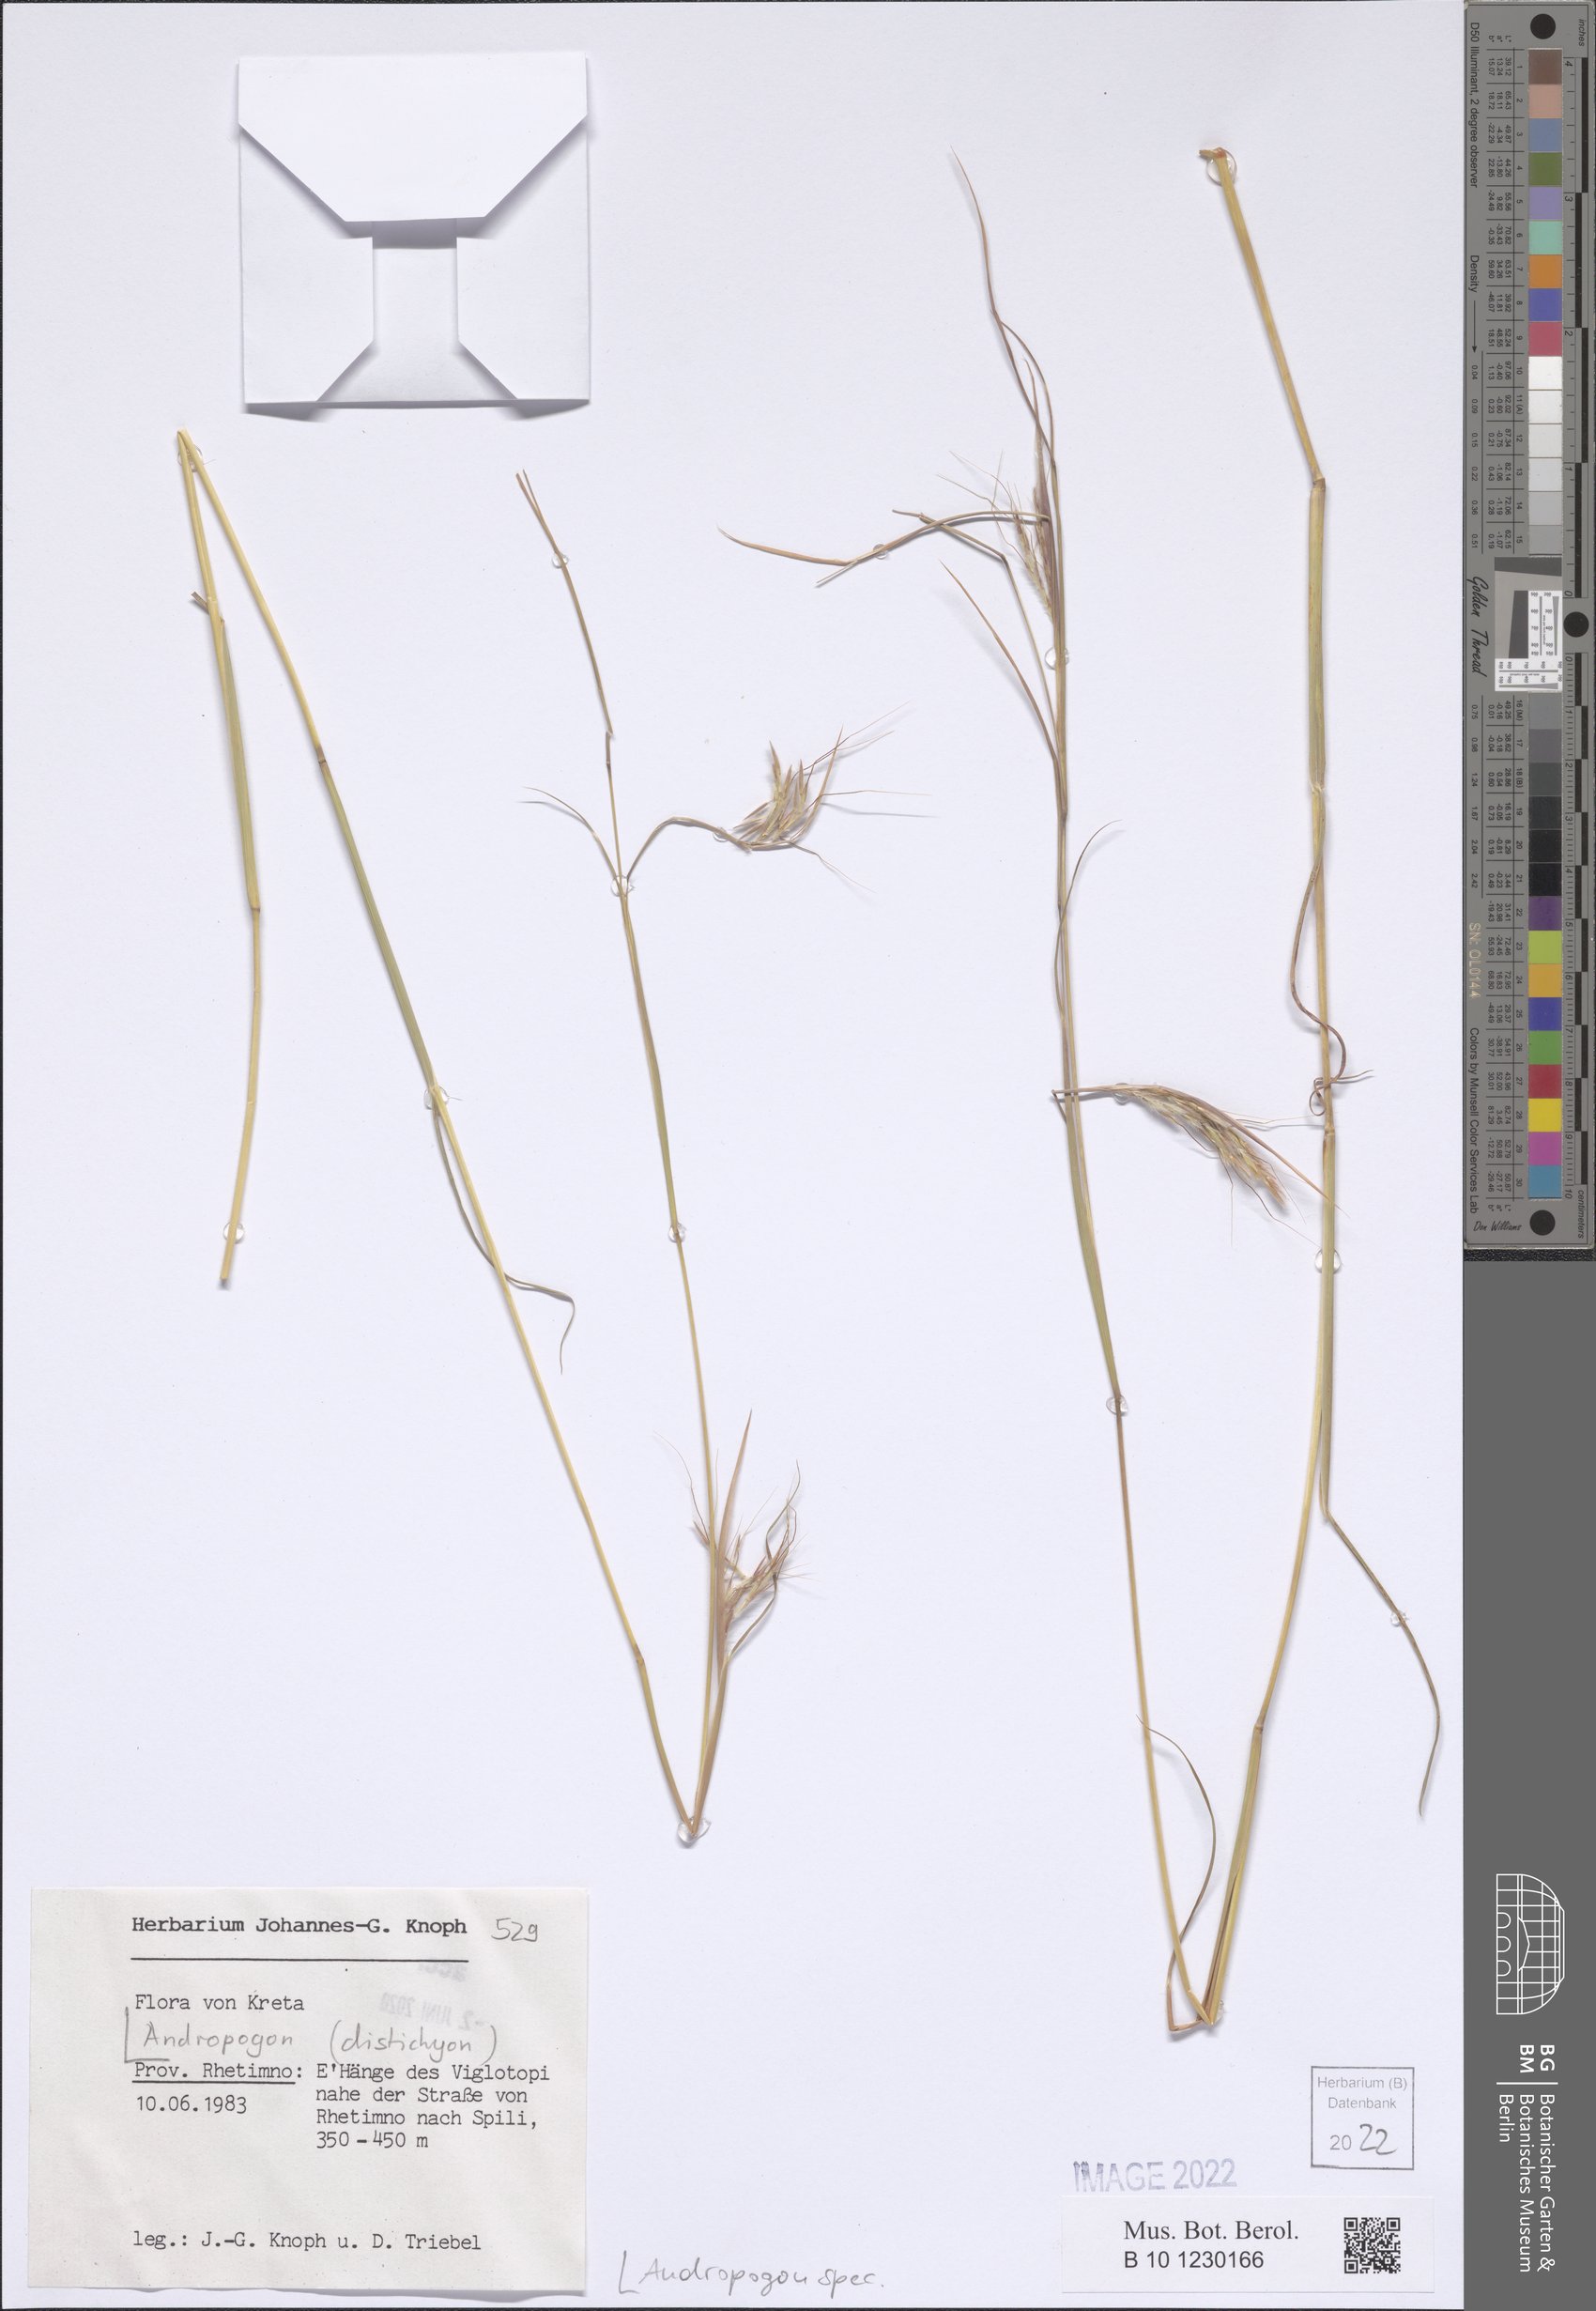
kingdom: Plantae
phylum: Tracheophyta
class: Liliopsida
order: Poales
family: Poaceae
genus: Andropogon
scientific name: Andropogon
